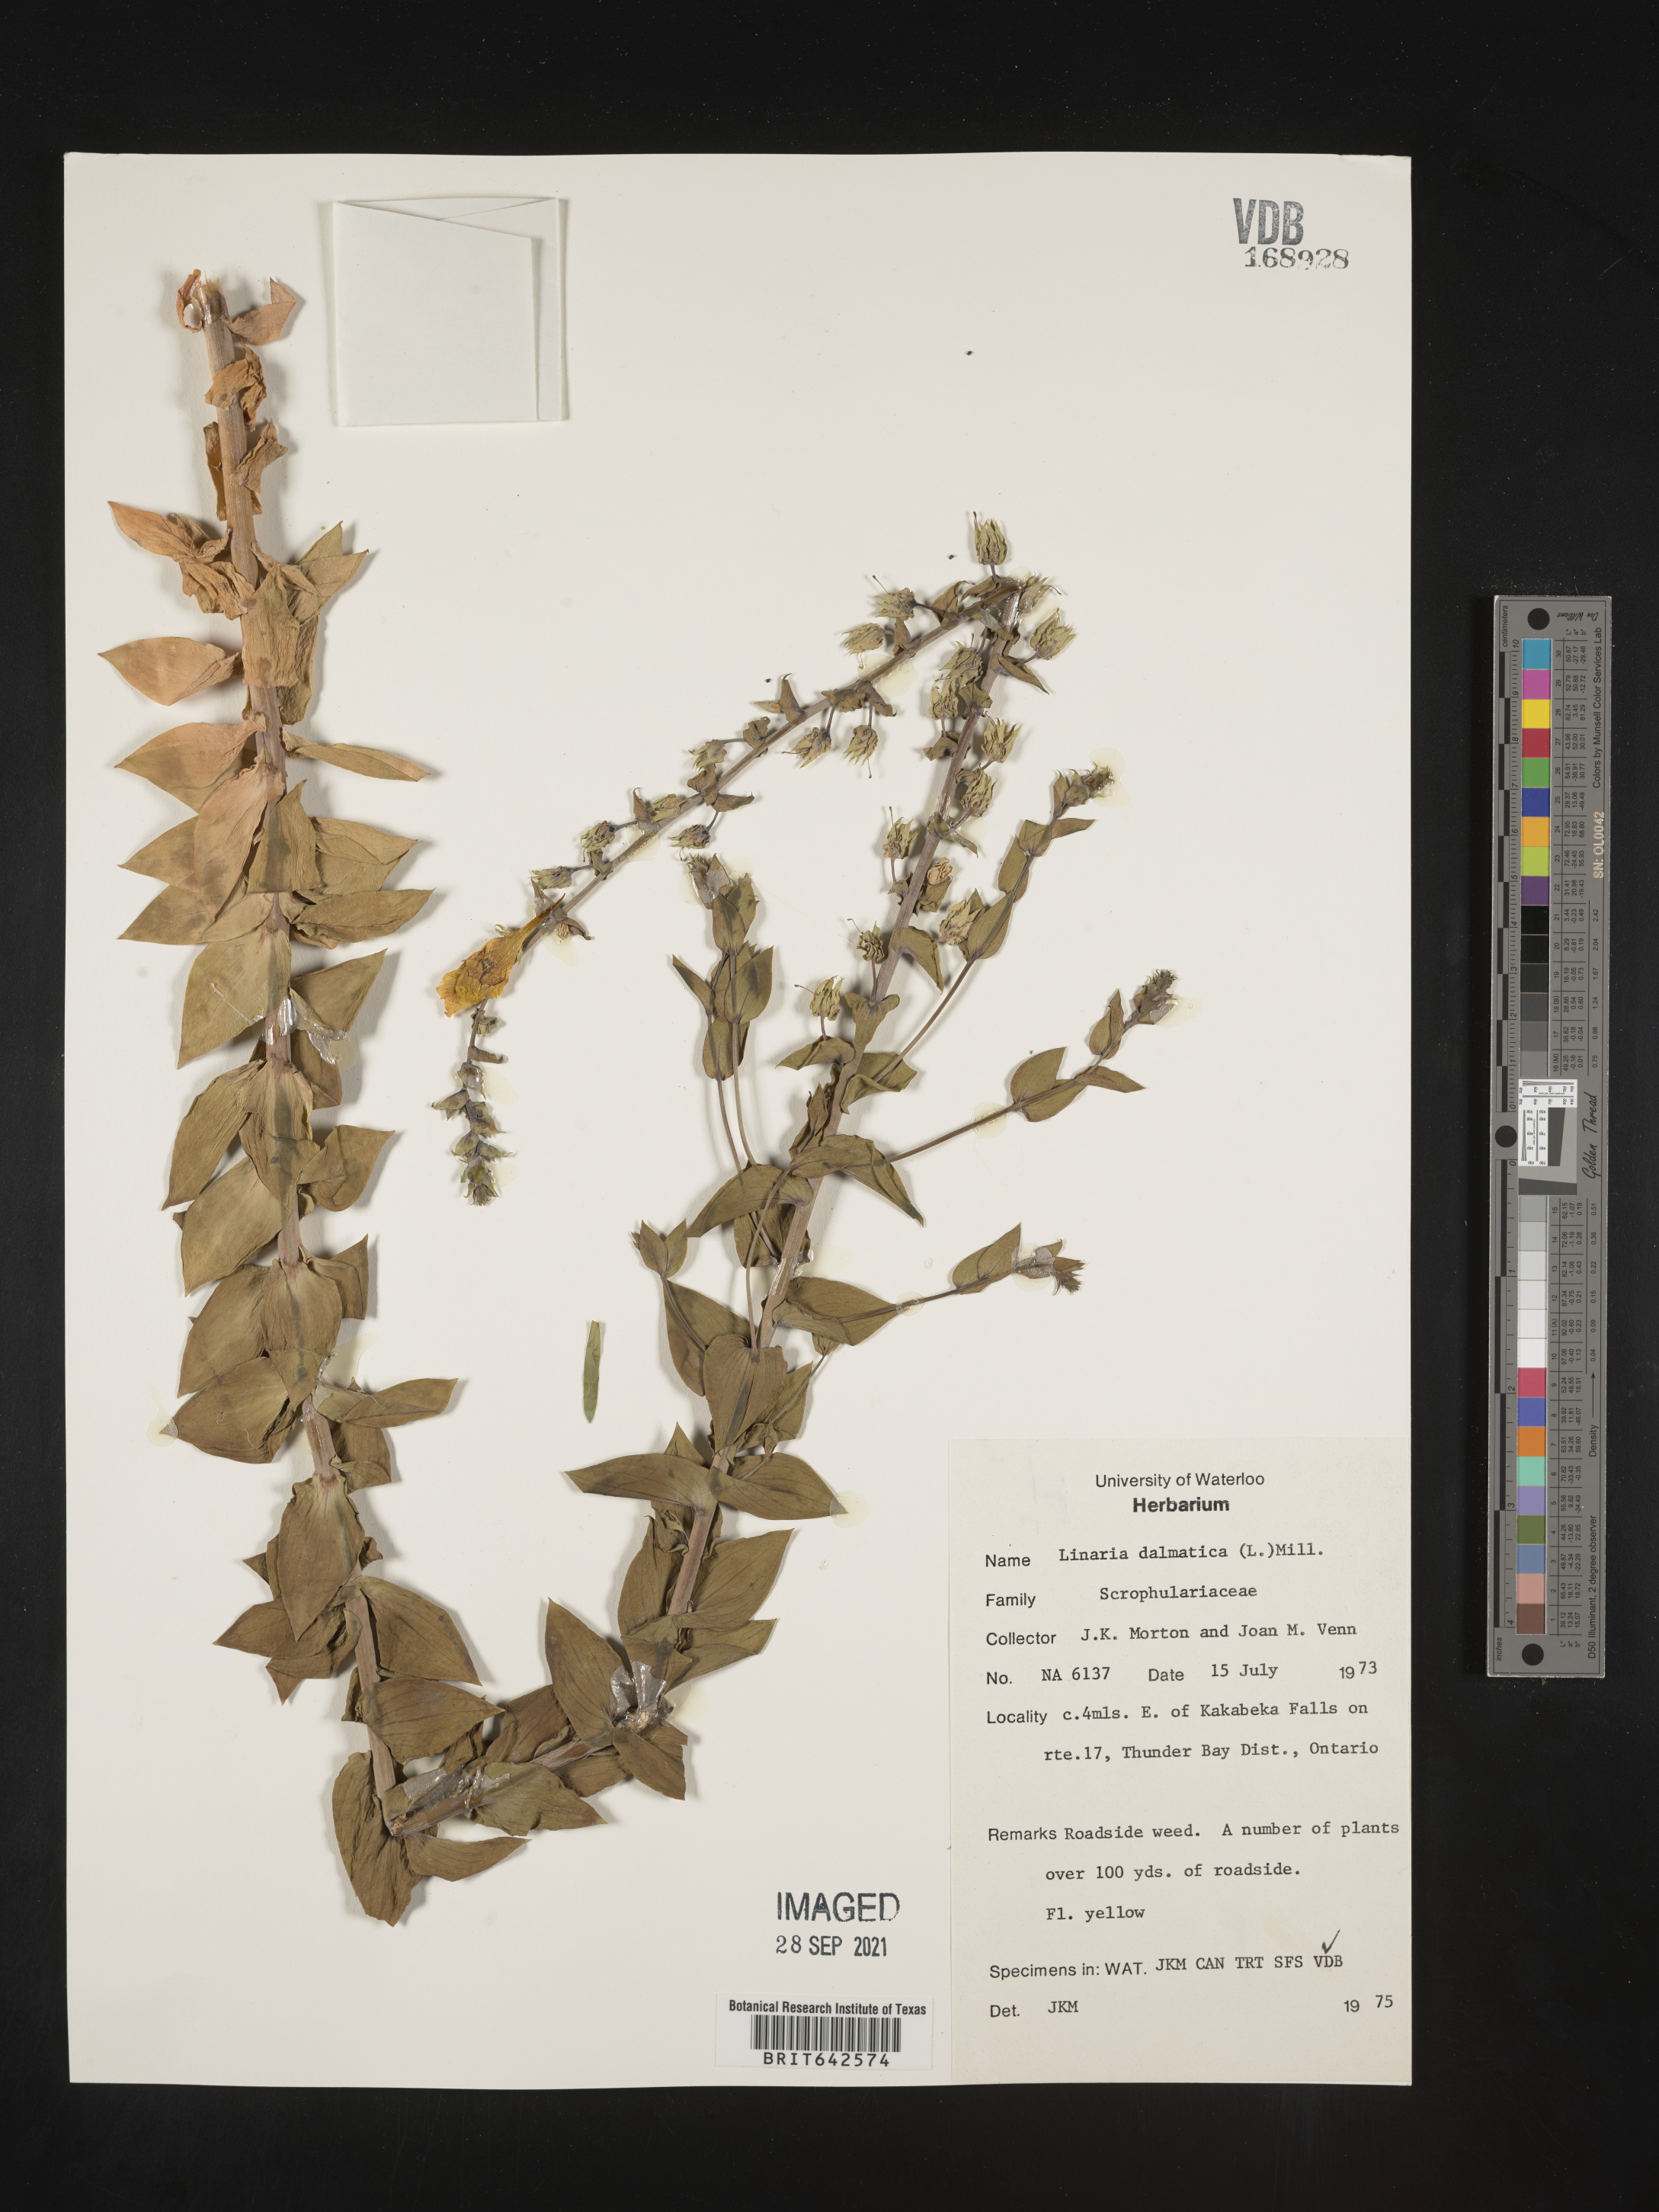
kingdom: Plantae
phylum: Tracheophyta
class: Magnoliopsida
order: Lamiales
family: Plantaginaceae
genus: Linaria
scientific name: Linaria
